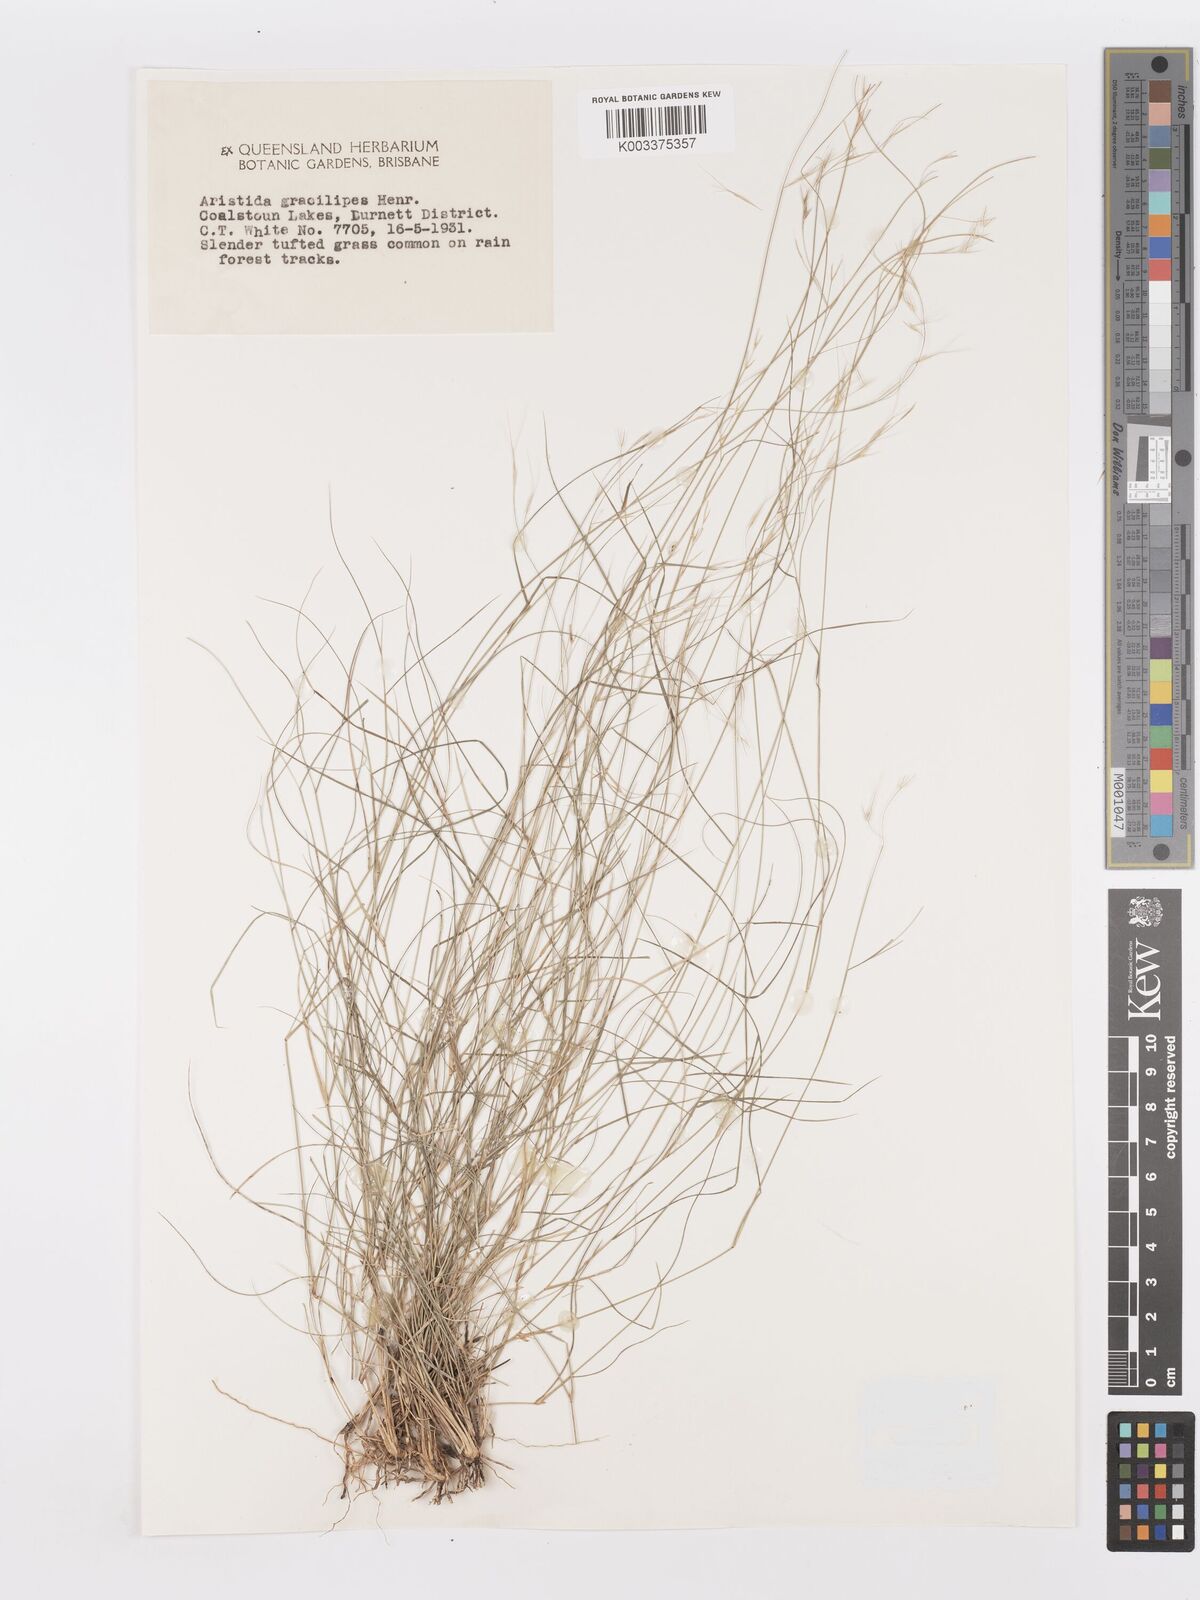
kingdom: Plantae
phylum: Tracheophyta
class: Liliopsida
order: Poales
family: Poaceae
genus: Aristida
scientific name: Aristida gracilipes
